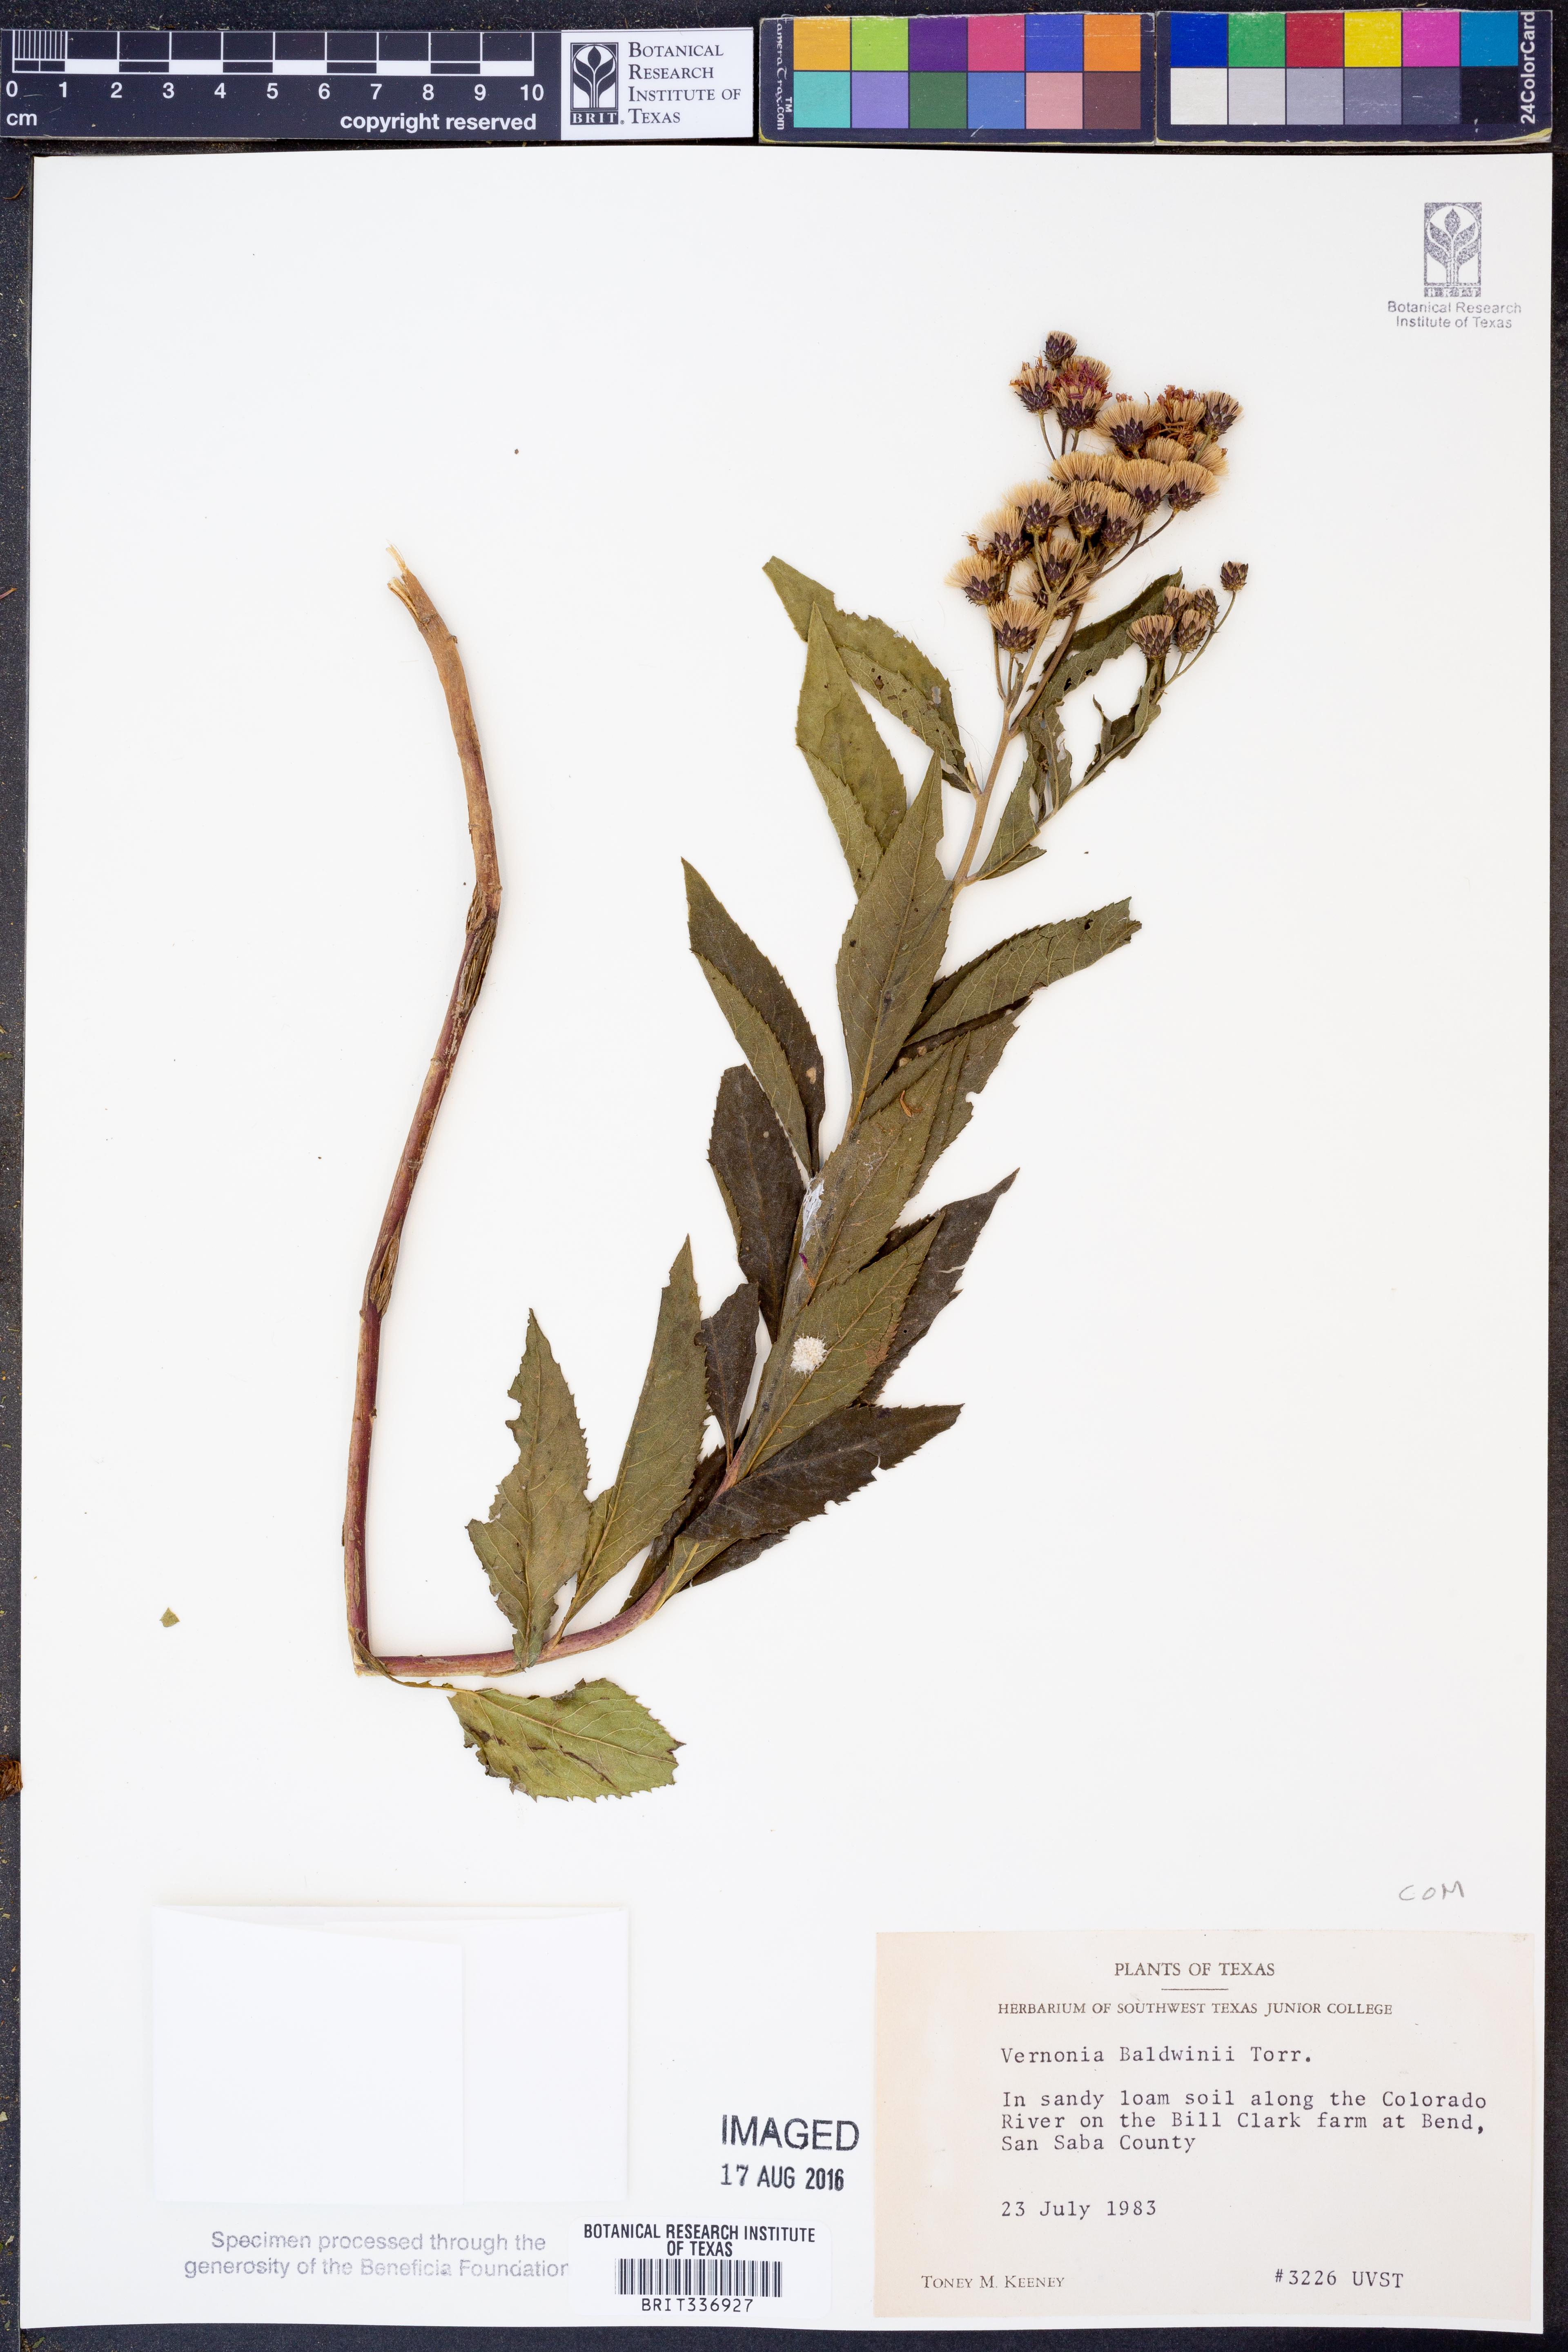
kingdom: Plantae
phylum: Tracheophyta
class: Magnoliopsida
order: Asterales
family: Asteraceae
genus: Vernonia
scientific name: Vernonia baldwinii
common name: Western ironweed
